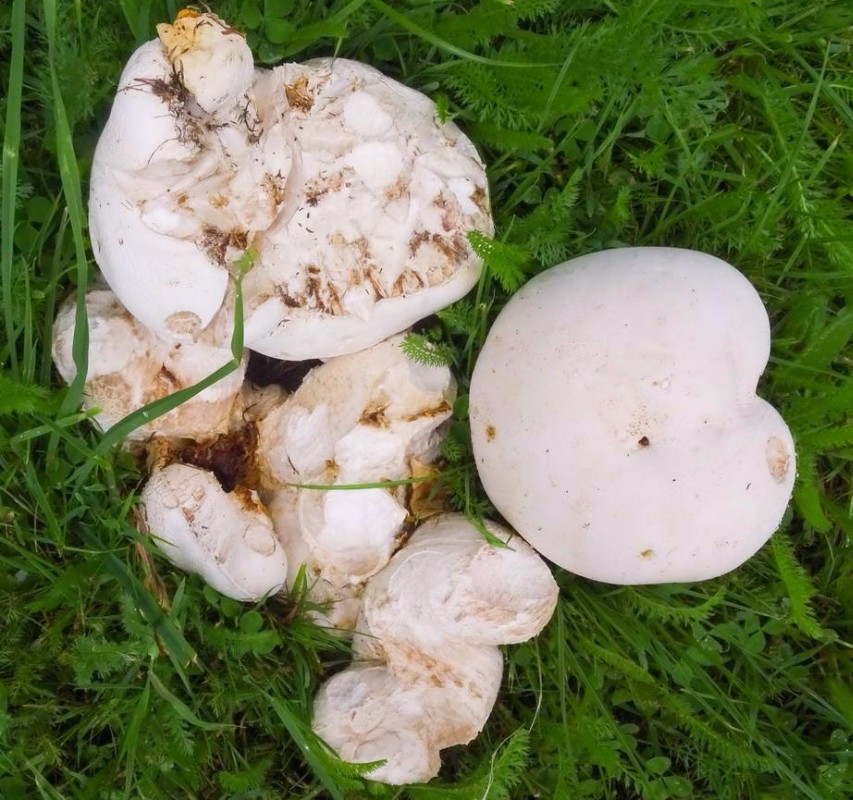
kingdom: Fungi
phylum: Basidiomycota
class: Agaricomycetes
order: Agaricales
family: Lycoperdaceae
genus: Calvatia
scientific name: Calvatia gigantea
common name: kæmpestøvbold
